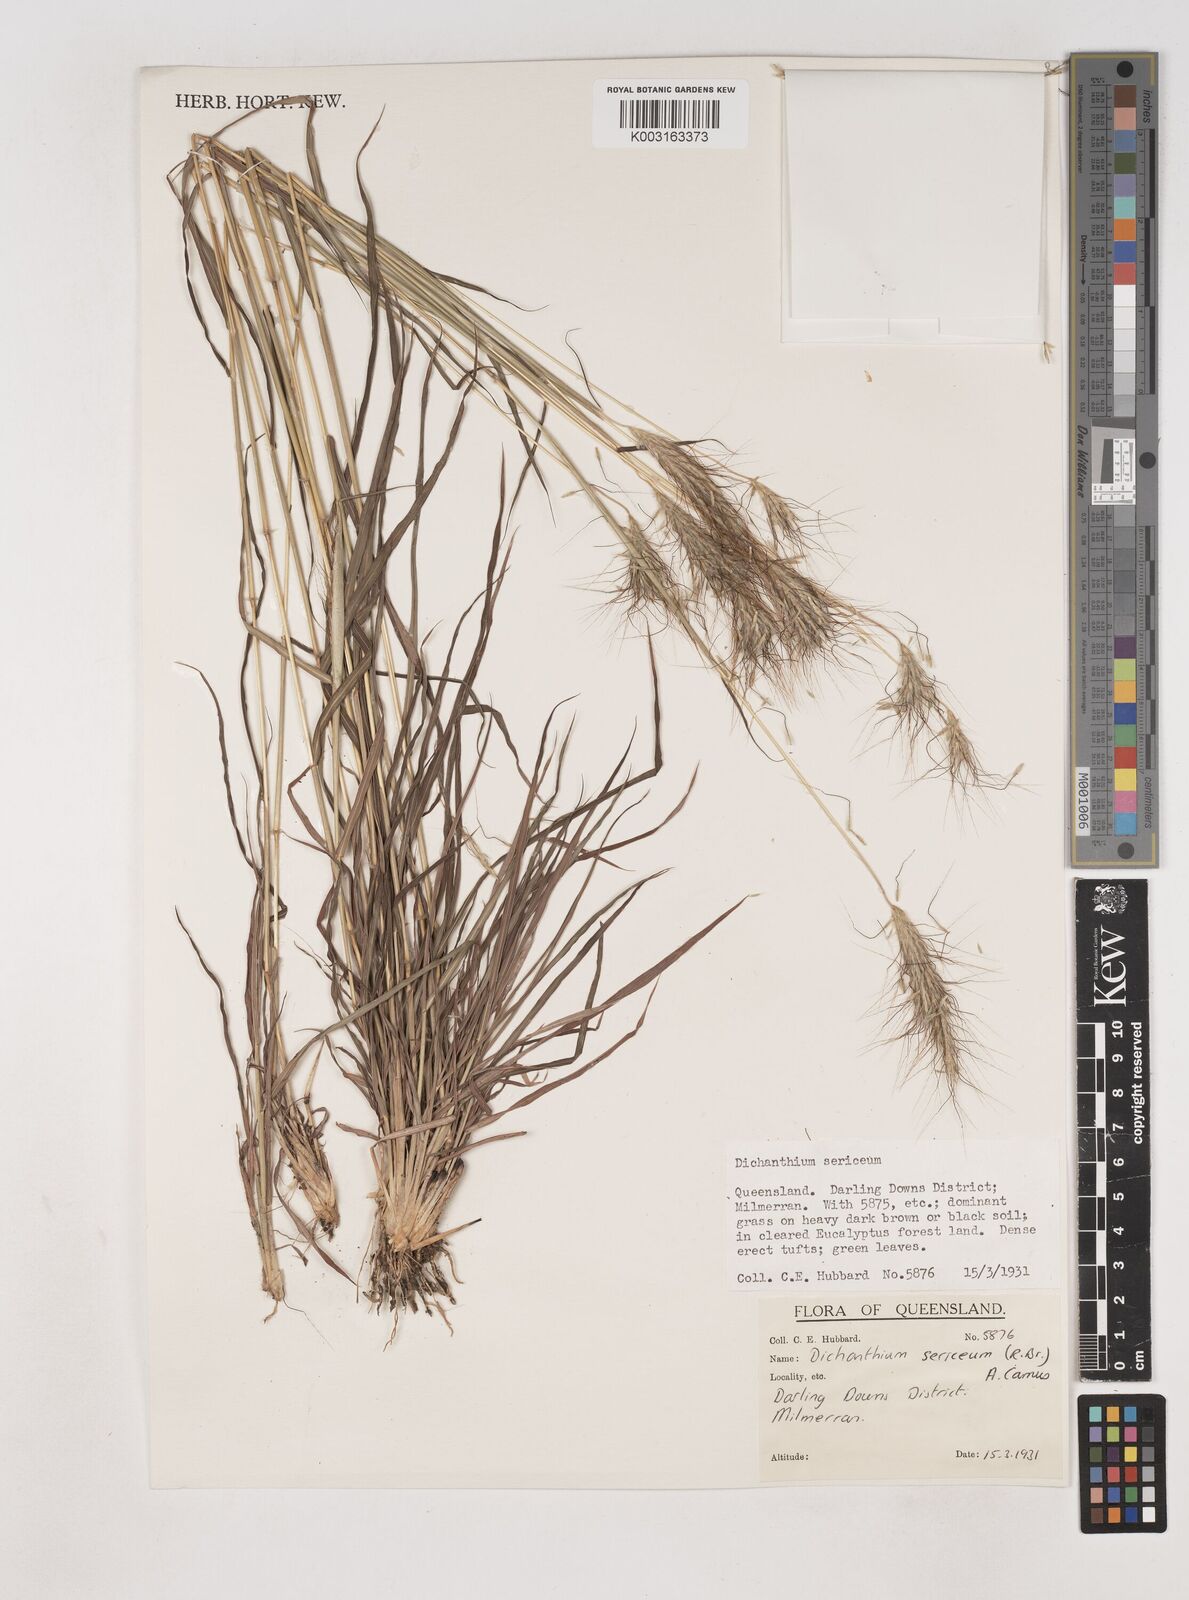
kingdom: Plantae
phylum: Tracheophyta
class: Liliopsida
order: Poales
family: Poaceae
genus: Dichanthium
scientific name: Dichanthium sericeum
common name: Silky bluestem
